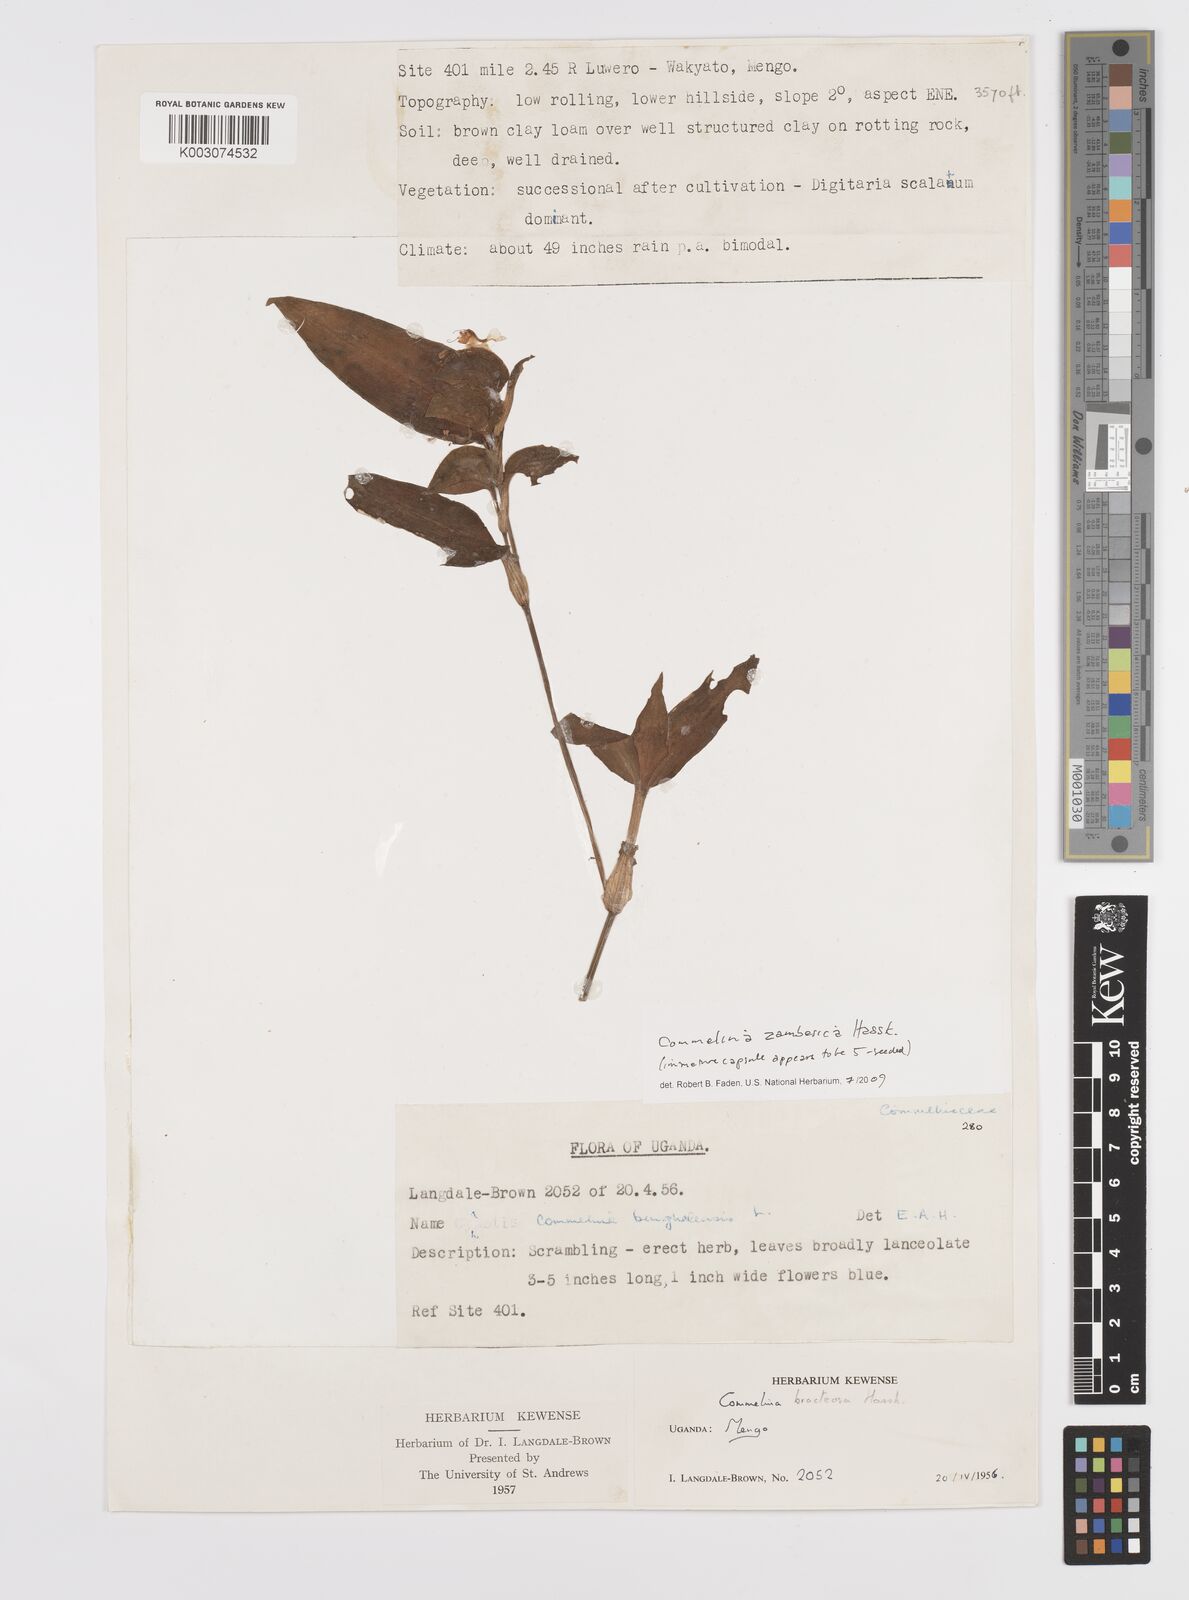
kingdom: Plantae
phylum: Tracheophyta
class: Liliopsida
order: Commelinales
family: Commelinaceae
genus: Commelina
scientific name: Commelina zambesica
